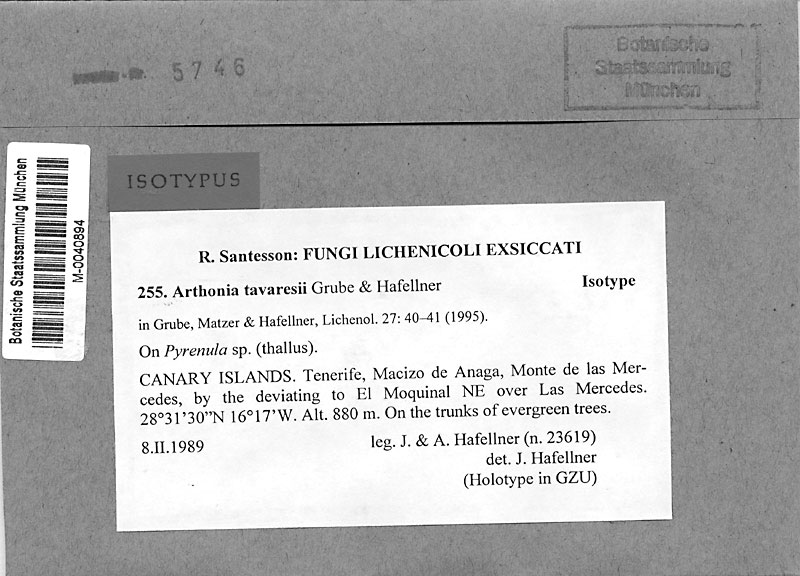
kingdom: Fungi
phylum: Ascomycota
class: Arthoniomycetes
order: Arthoniales
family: Arthoniaceae
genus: Arthonia
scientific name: Arthonia tavaresii
